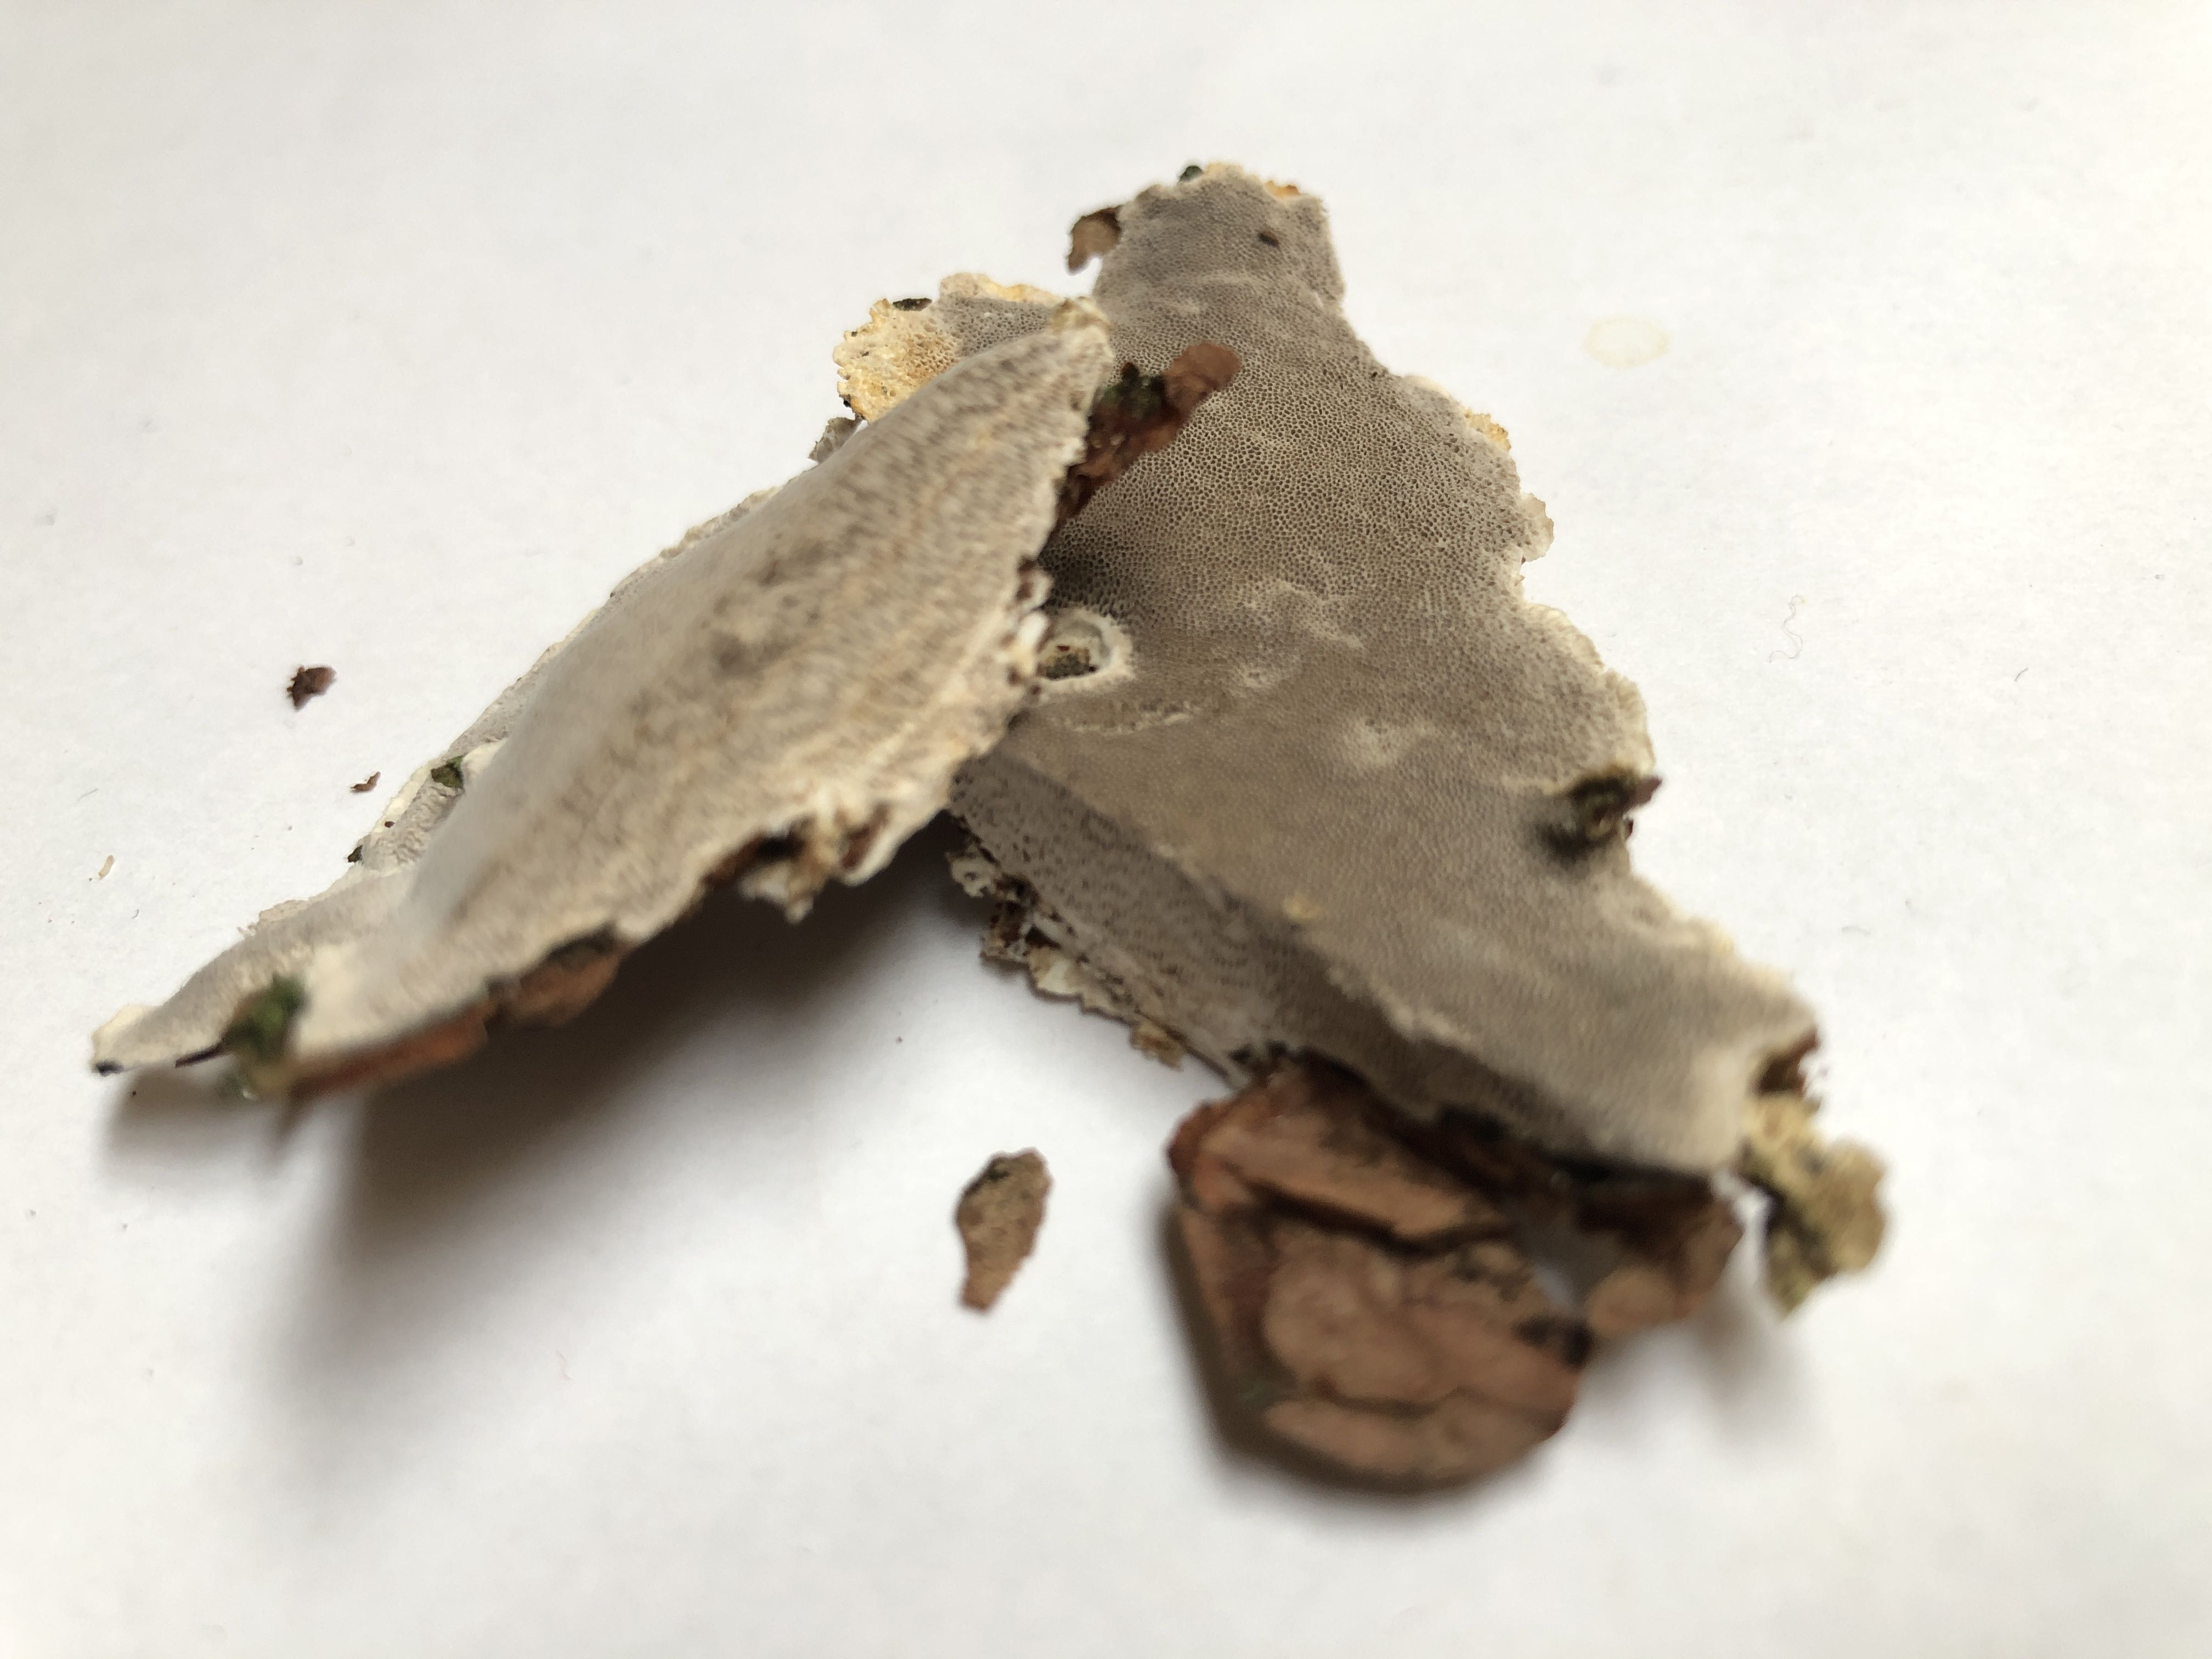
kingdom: Fungi
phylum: Basidiomycota
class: Agaricomycetes
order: Polyporales
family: Gelatoporiaceae
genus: Cinereomyces
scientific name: Cinereomyces lindbladii
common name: almindelig gråporesvamp
